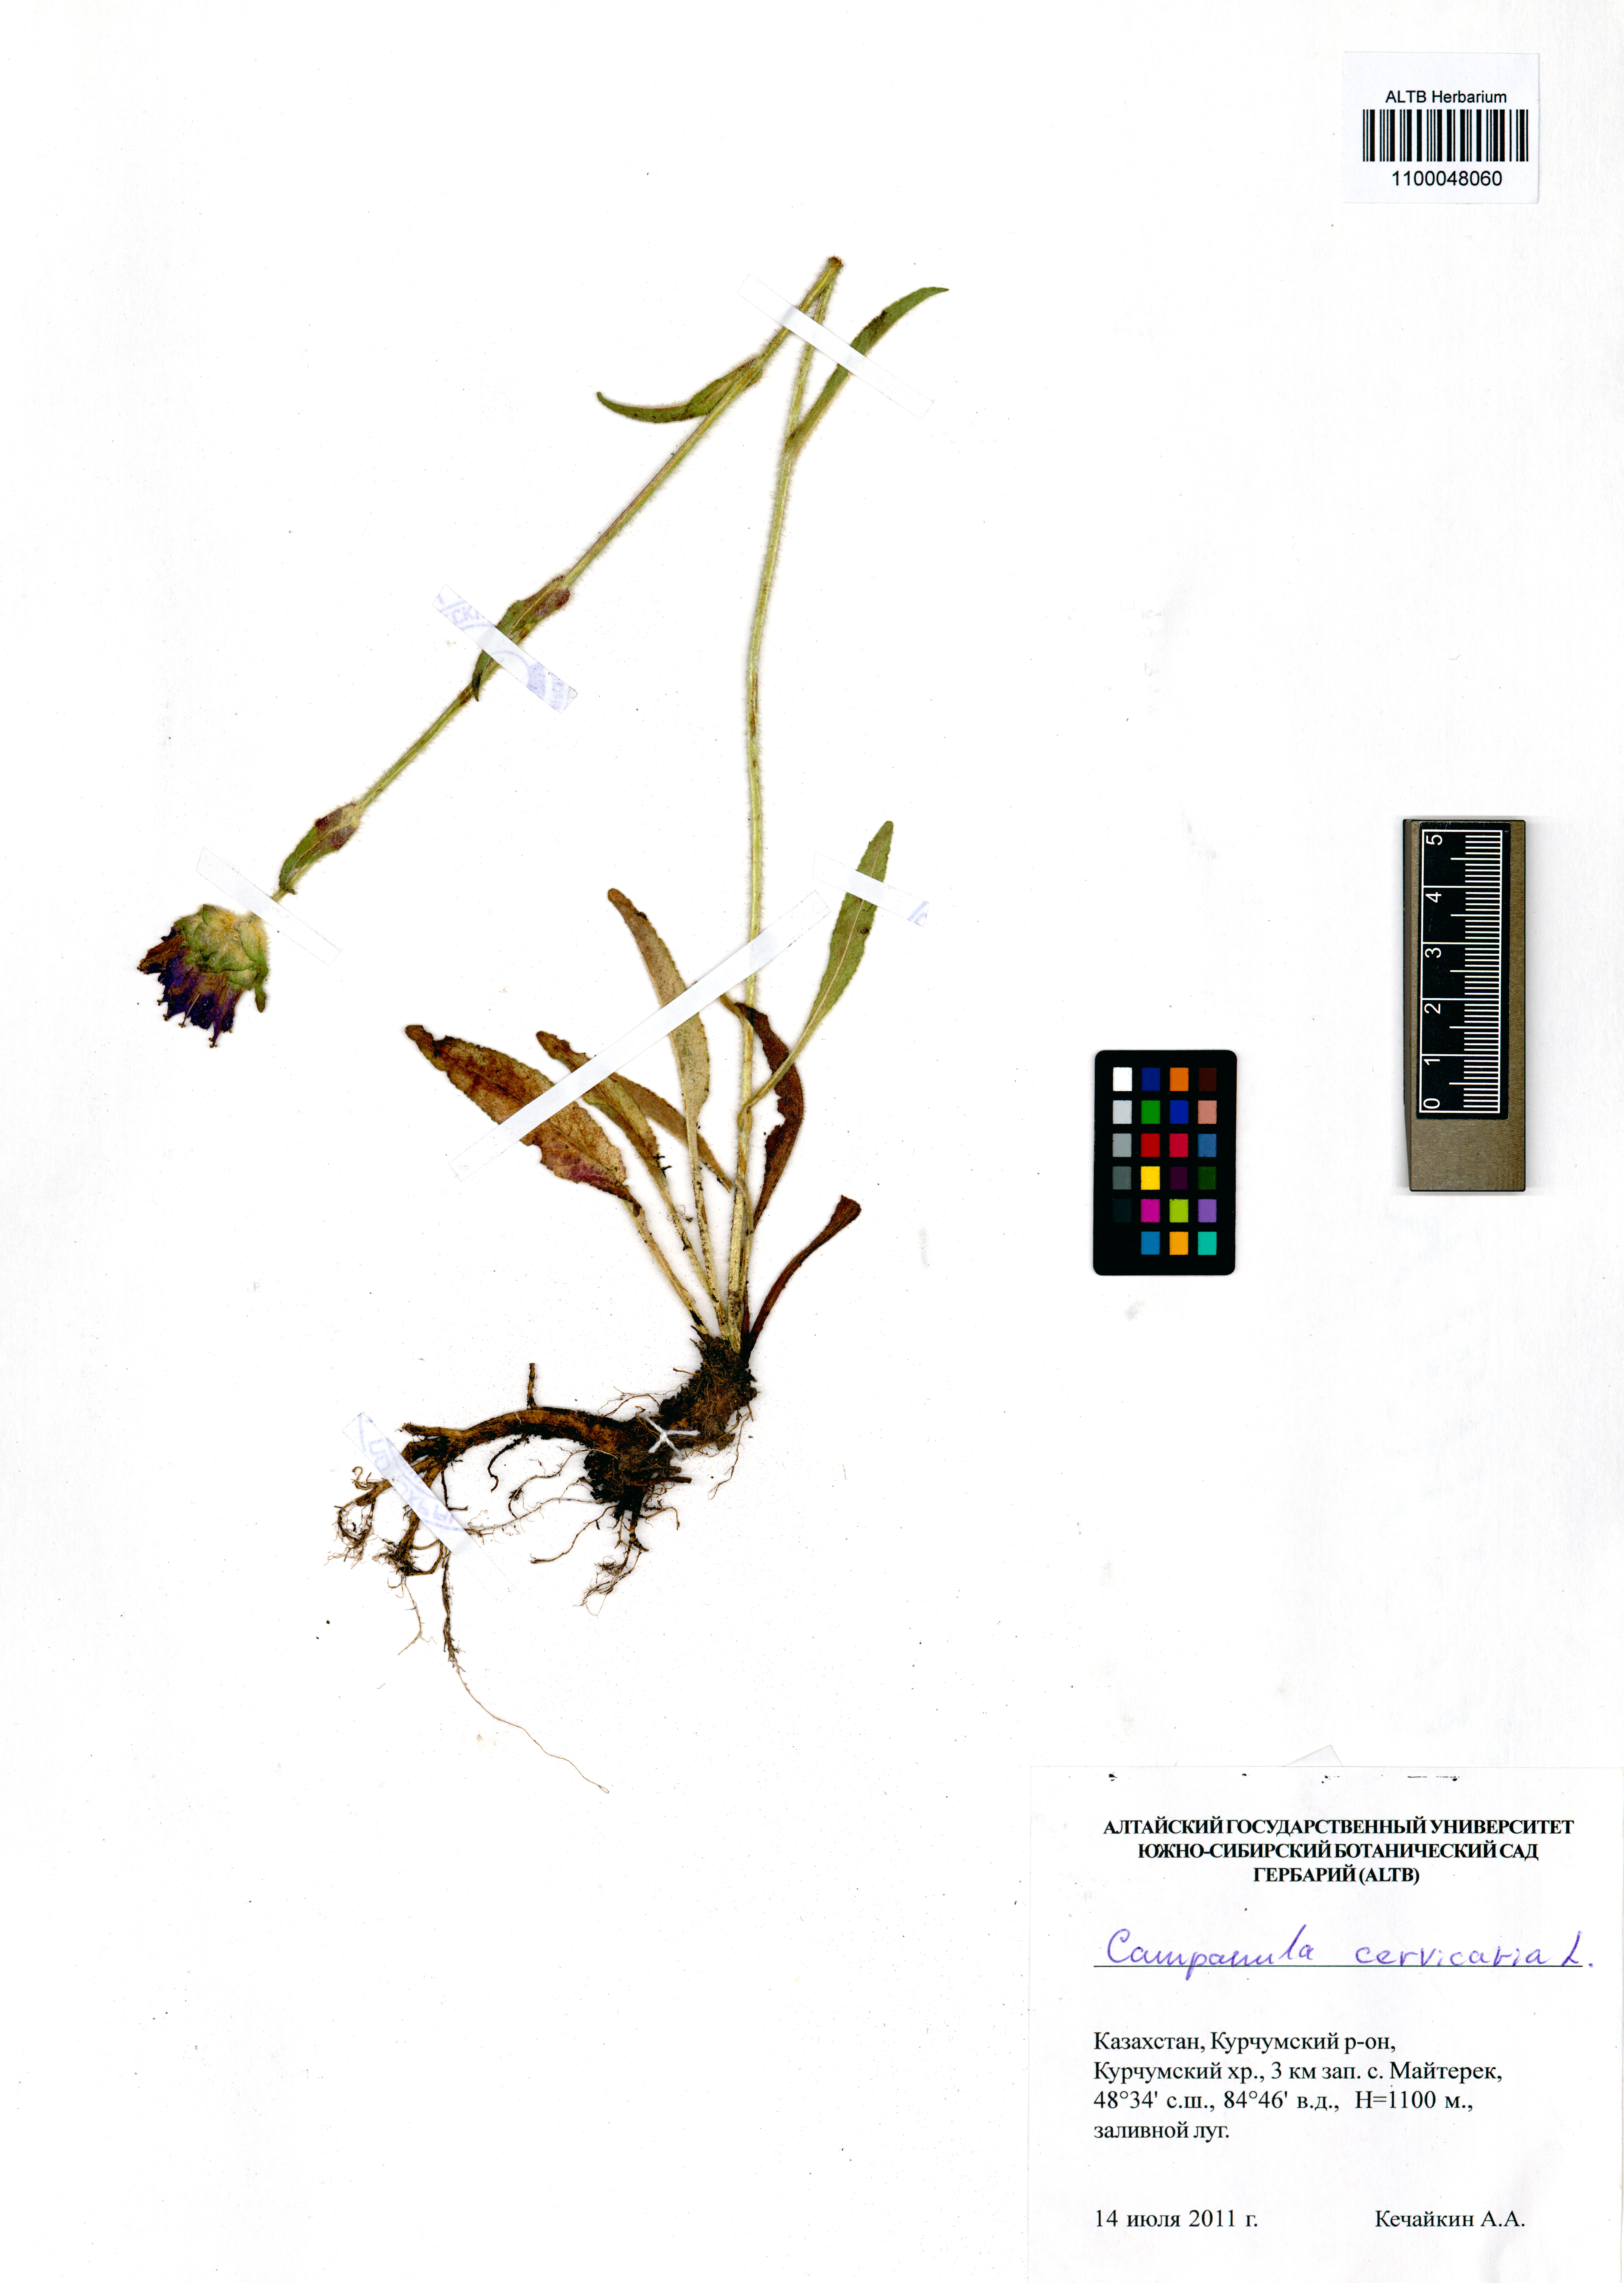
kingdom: Plantae
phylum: Tracheophyta
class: Magnoliopsida
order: Asterales
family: Campanulaceae
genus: Campanula
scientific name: Campanula cervicaria
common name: Bristly bellflower
